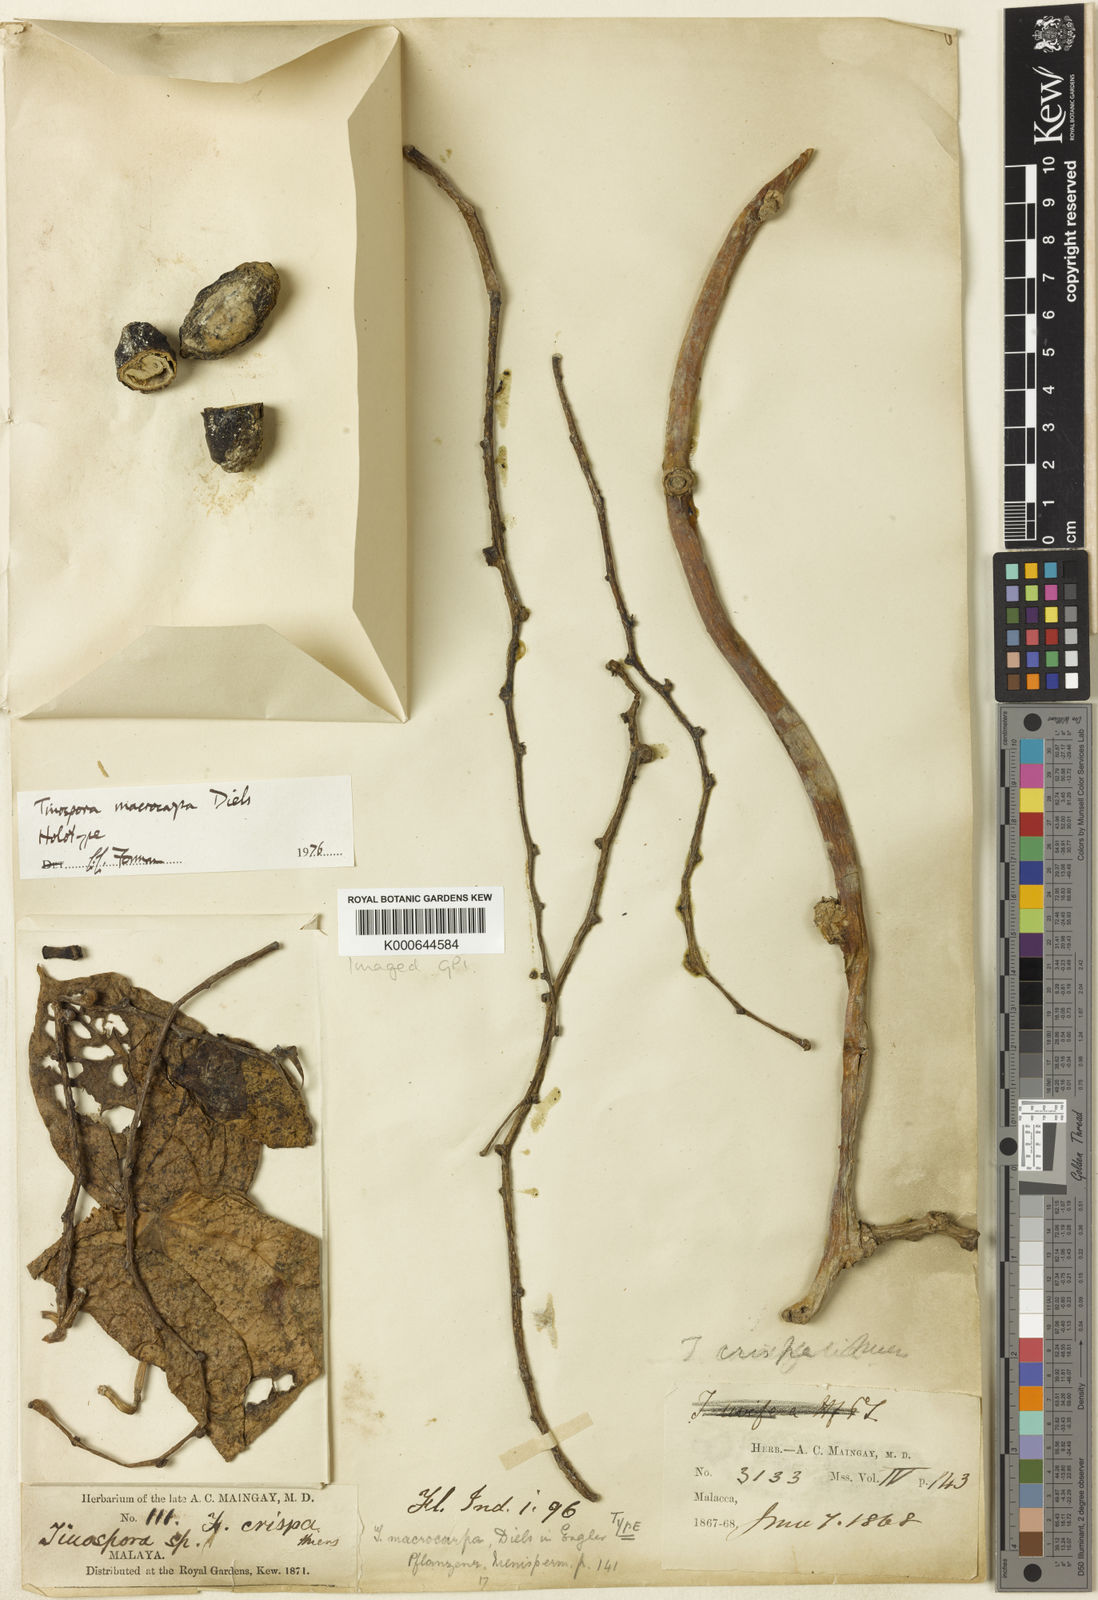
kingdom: Plantae
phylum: Tracheophyta
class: Magnoliopsida
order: Ranunculales
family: Menispermaceae
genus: Tinospora
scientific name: Tinospora macrocarpa
